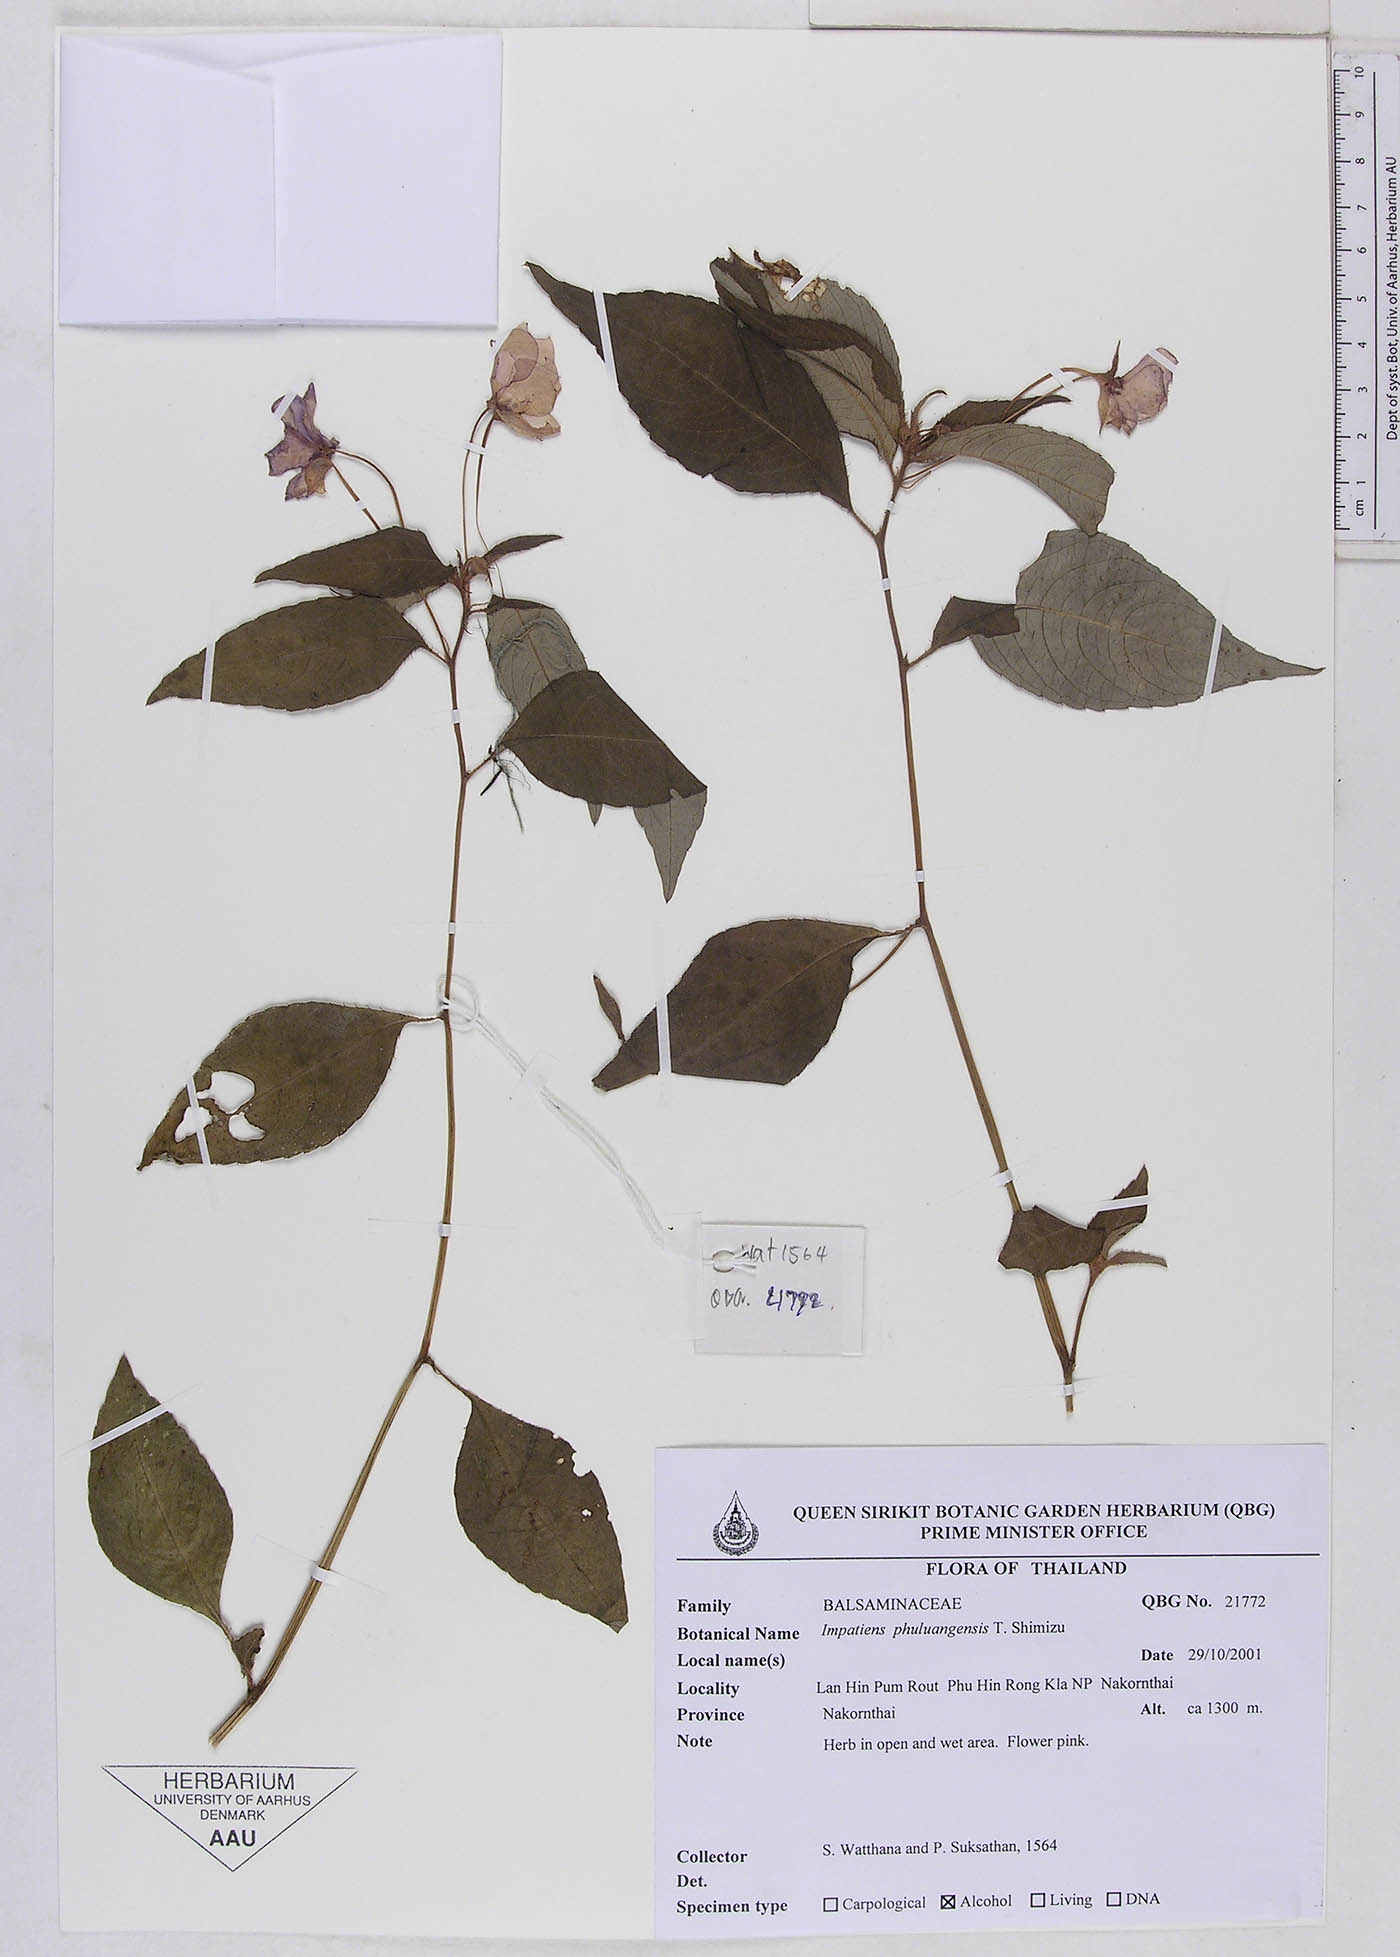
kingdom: Plantae
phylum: Tracheophyta
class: Magnoliopsida
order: Ericales
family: Balsaminaceae
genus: Impatiens
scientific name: Impatiens phuluangensis
